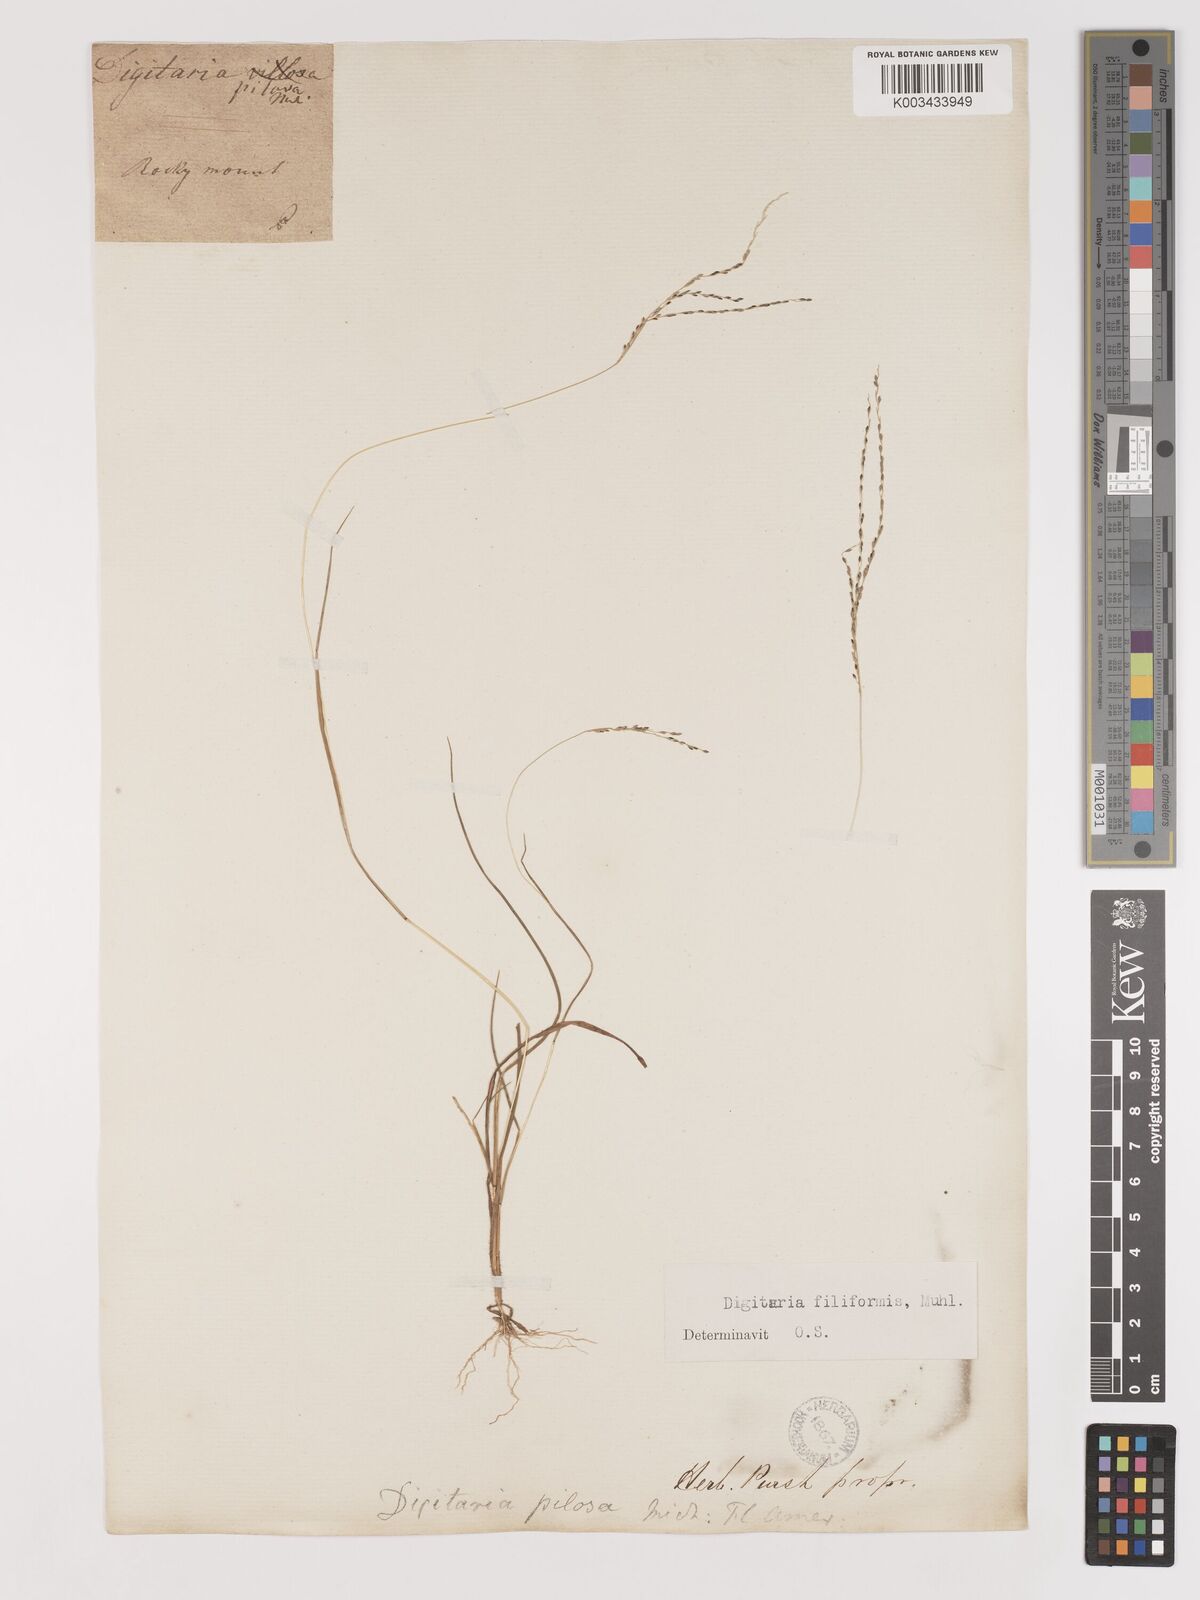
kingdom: Plantae
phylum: Tracheophyta
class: Liliopsida
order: Poales
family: Poaceae
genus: Digitaria
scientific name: Digitaria filiformis
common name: Slender crabgrass
